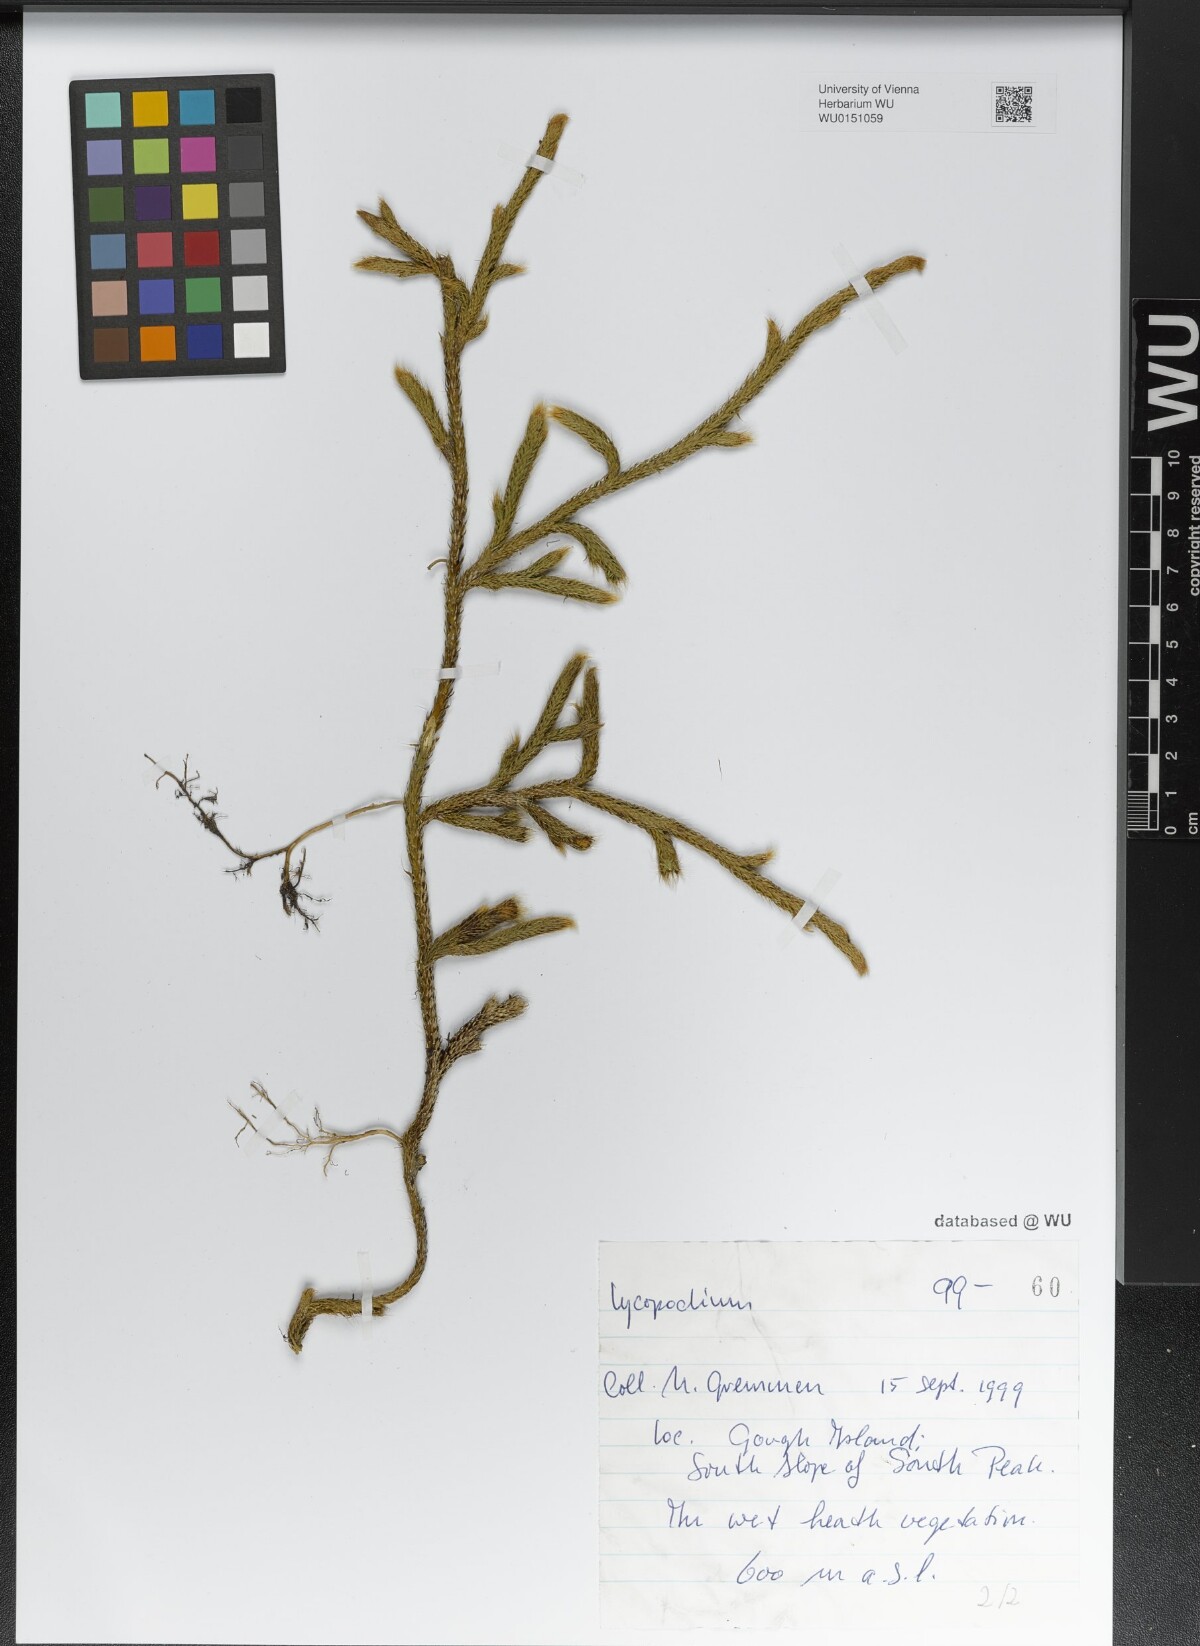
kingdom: Plantae
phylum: Tracheophyta
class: Lycopodiopsida
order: Lycopodiales
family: Lycopodiaceae
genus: Lycopodium
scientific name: Lycopodium
